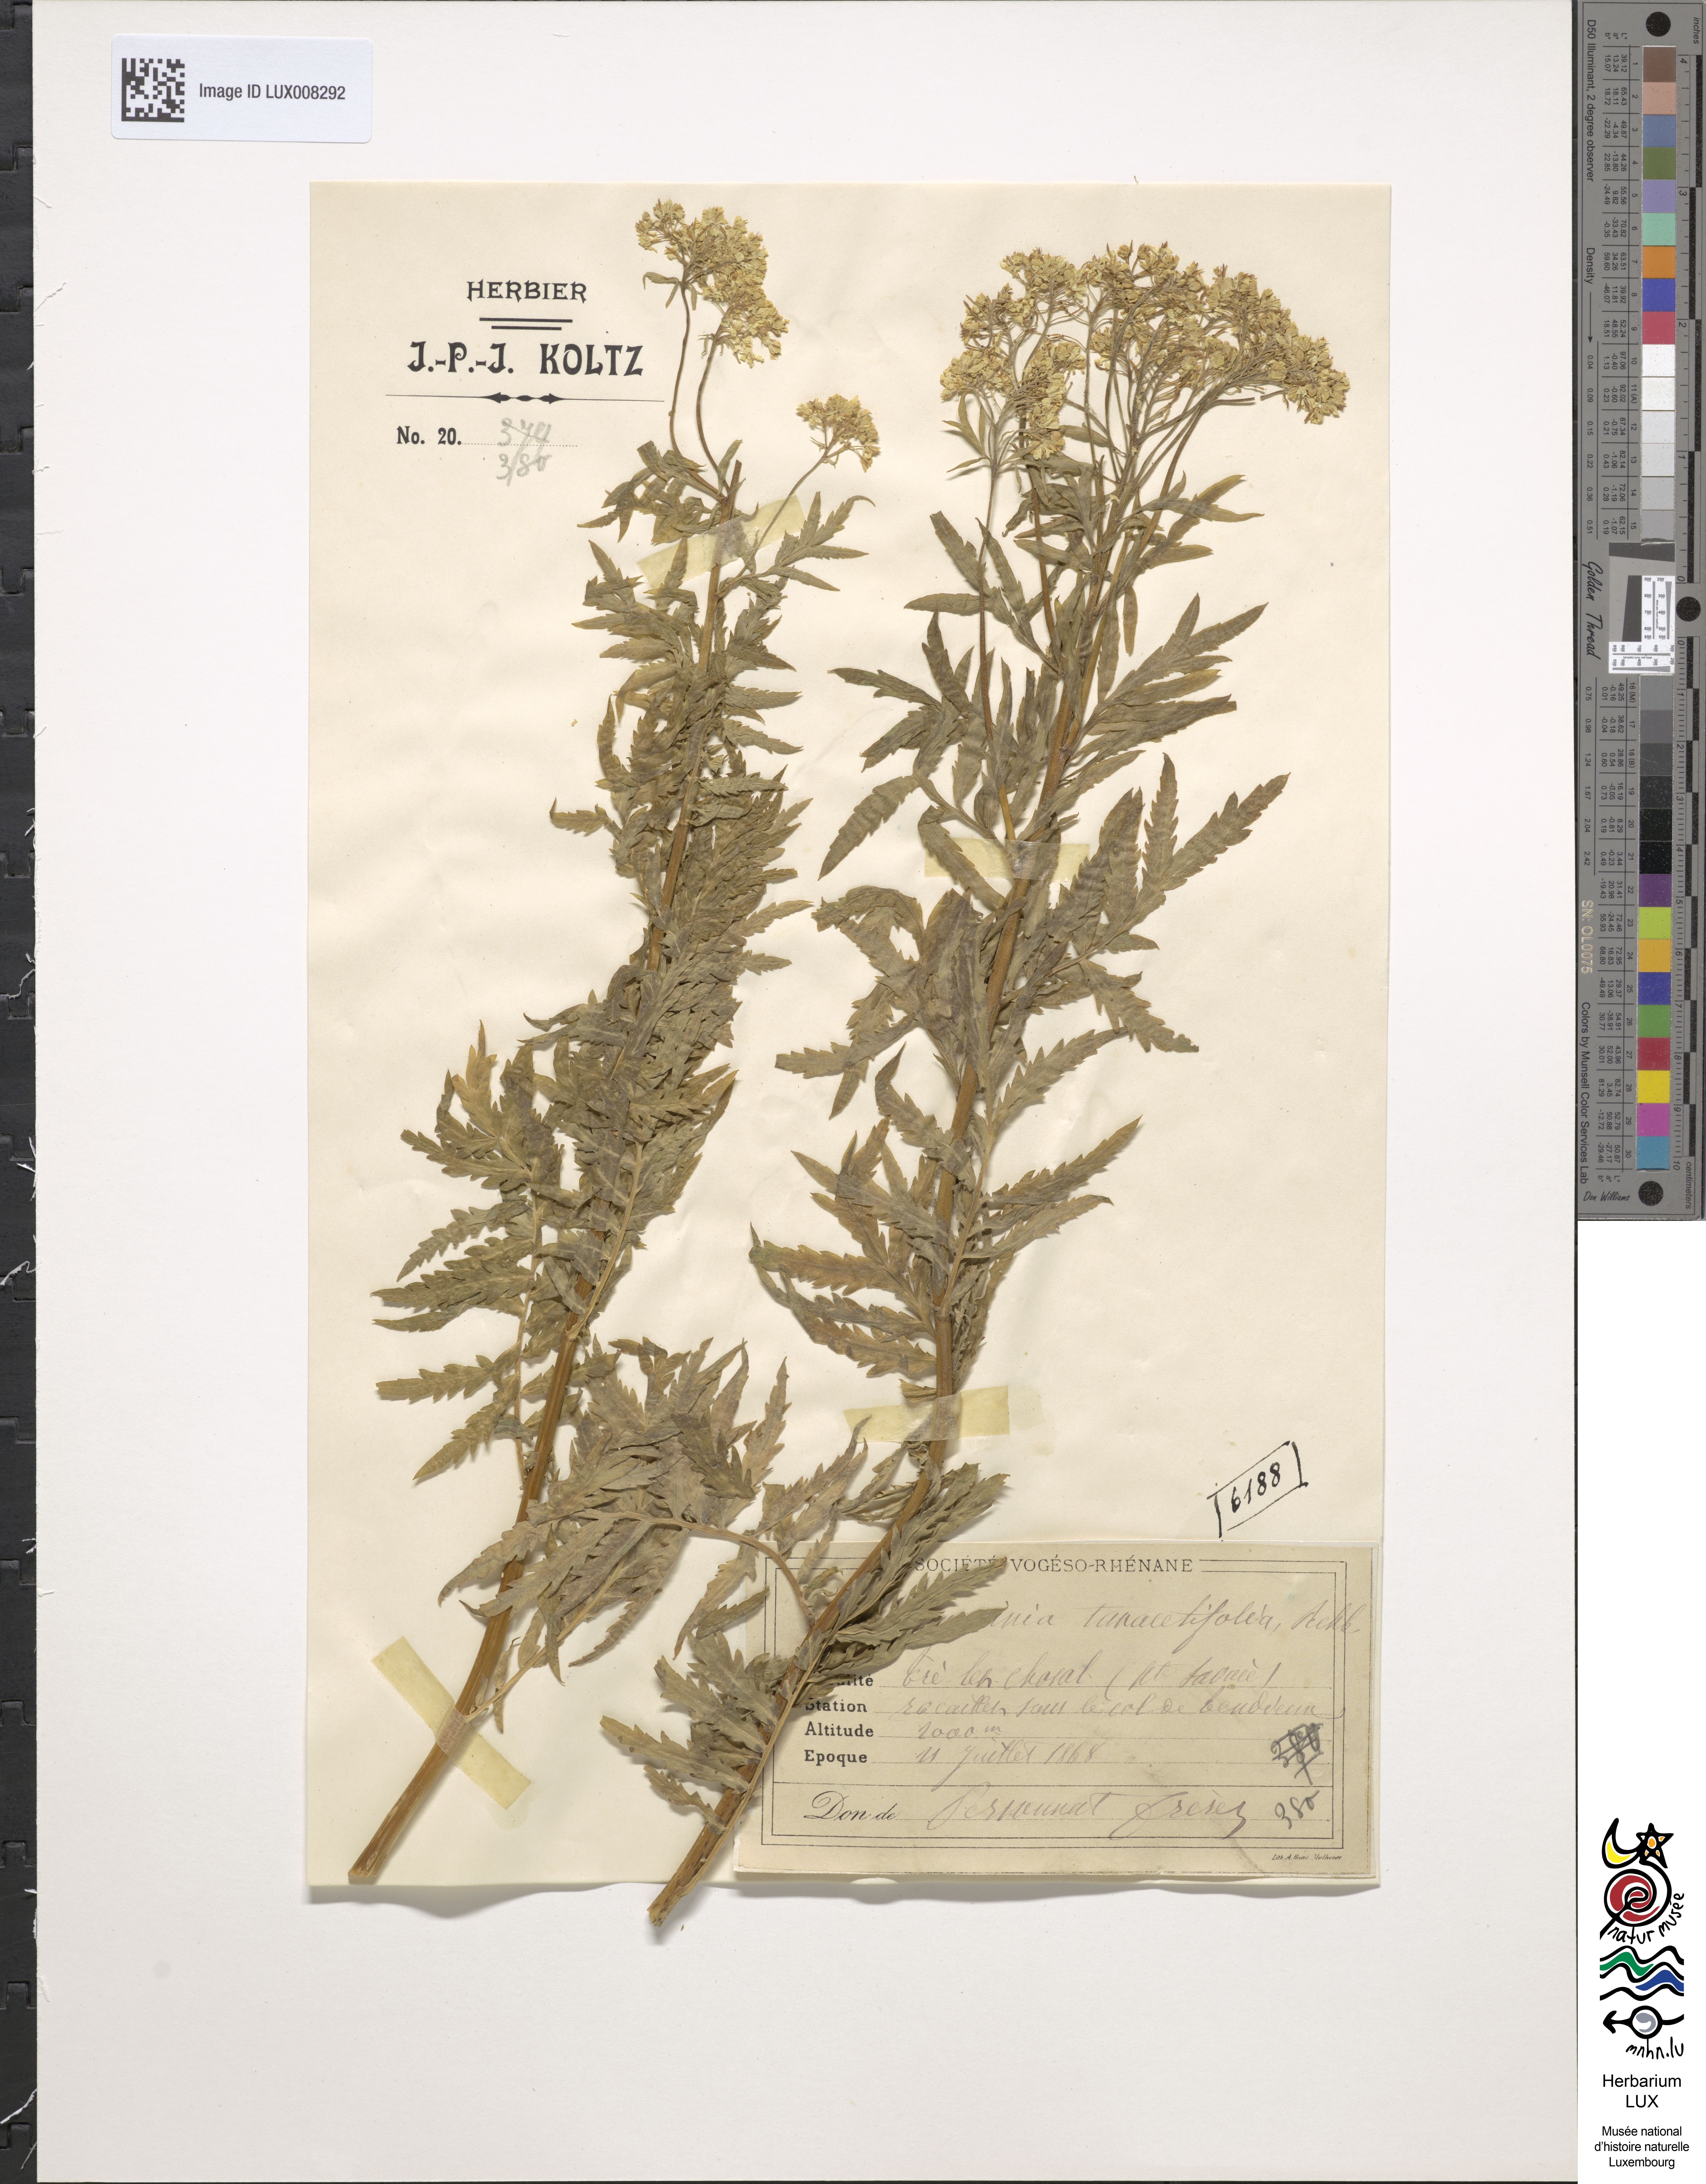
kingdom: Plantae
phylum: Tracheophyta
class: Magnoliopsida
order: Brassicales
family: Brassicaceae
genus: Descurainia
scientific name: Descurainia tanacetifolia
